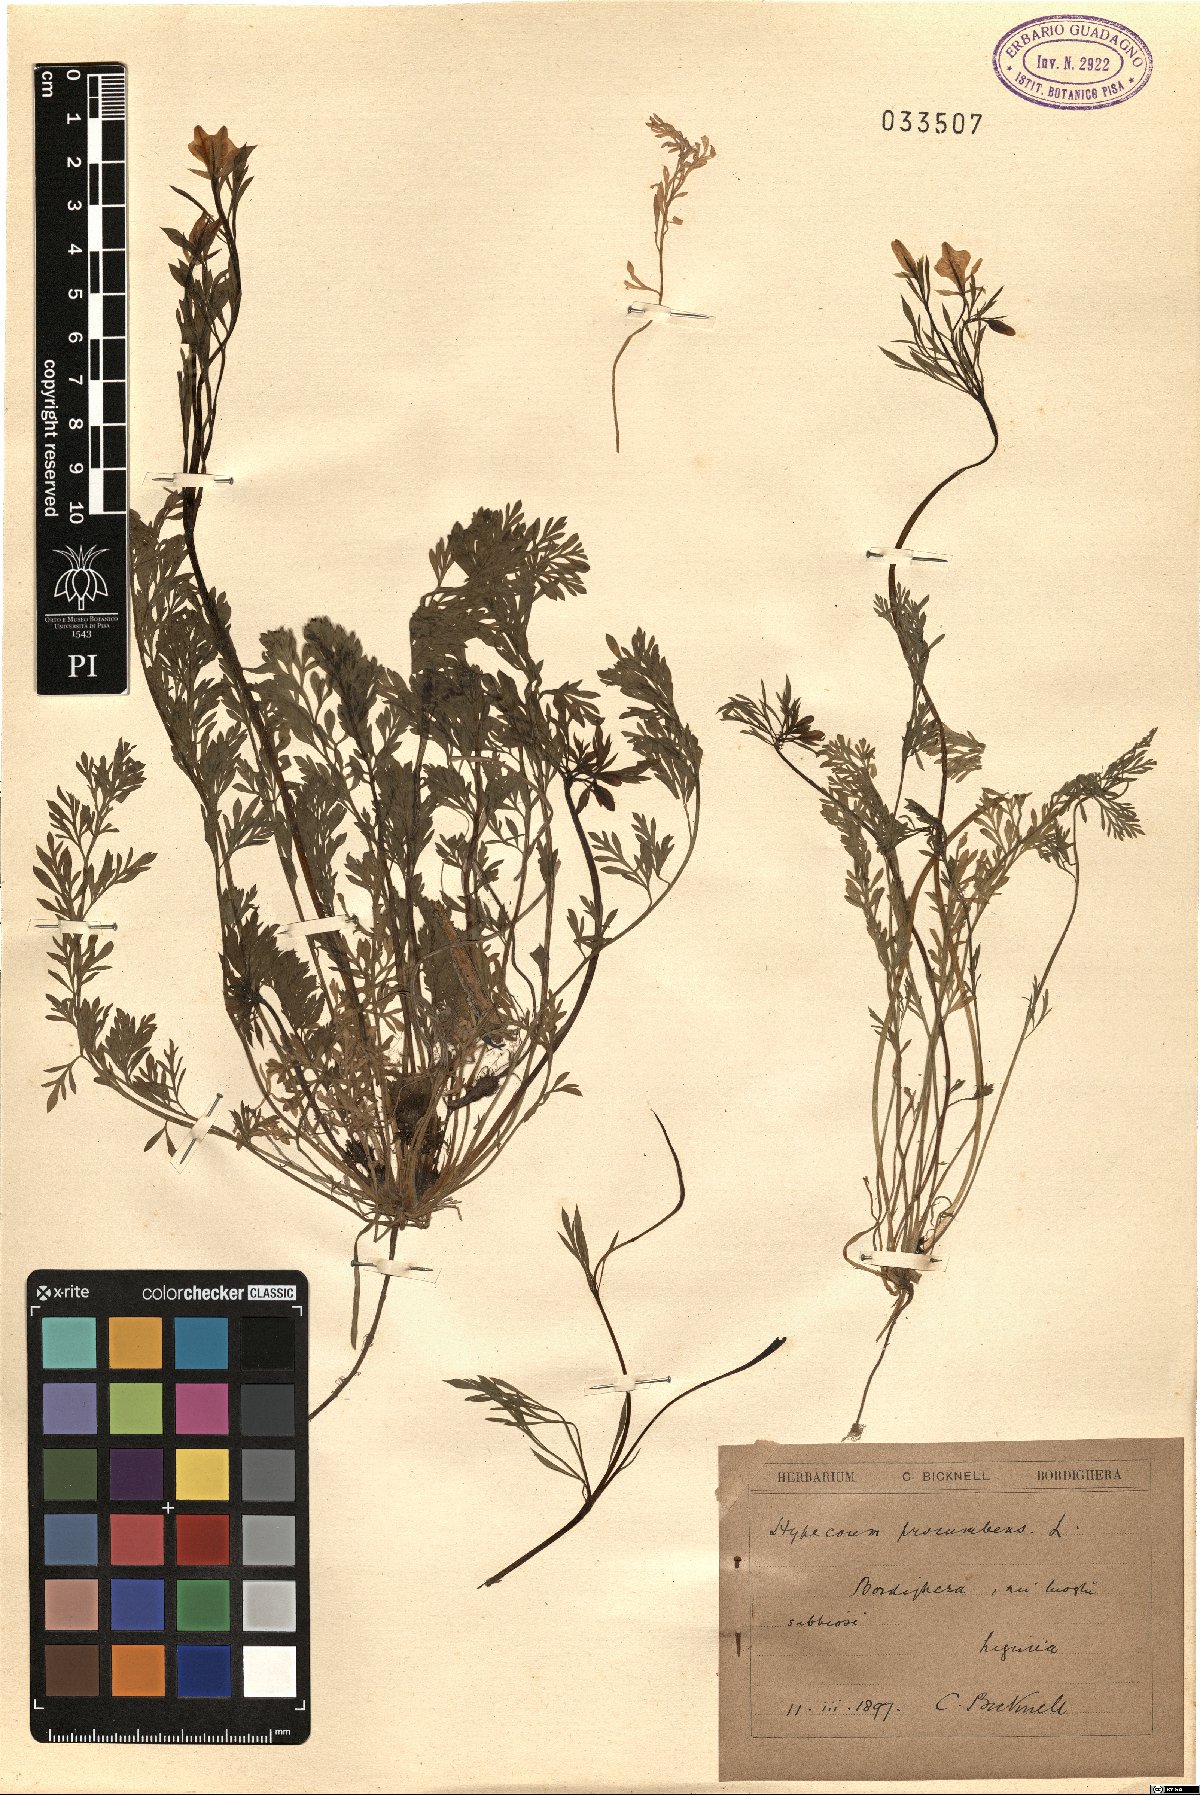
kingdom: Plantae
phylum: Tracheophyta
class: Magnoliopsida
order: Ranunculales
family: Papaveraceae
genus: Hypecoum
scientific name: Hypecoum procumbens
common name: Procumbent hypecoum
